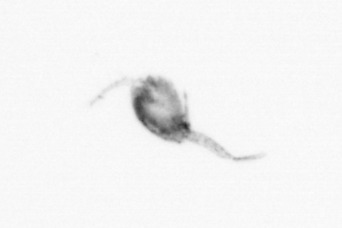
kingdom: Animalia
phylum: Arthropoda
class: Copepoda
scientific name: Copepoda
